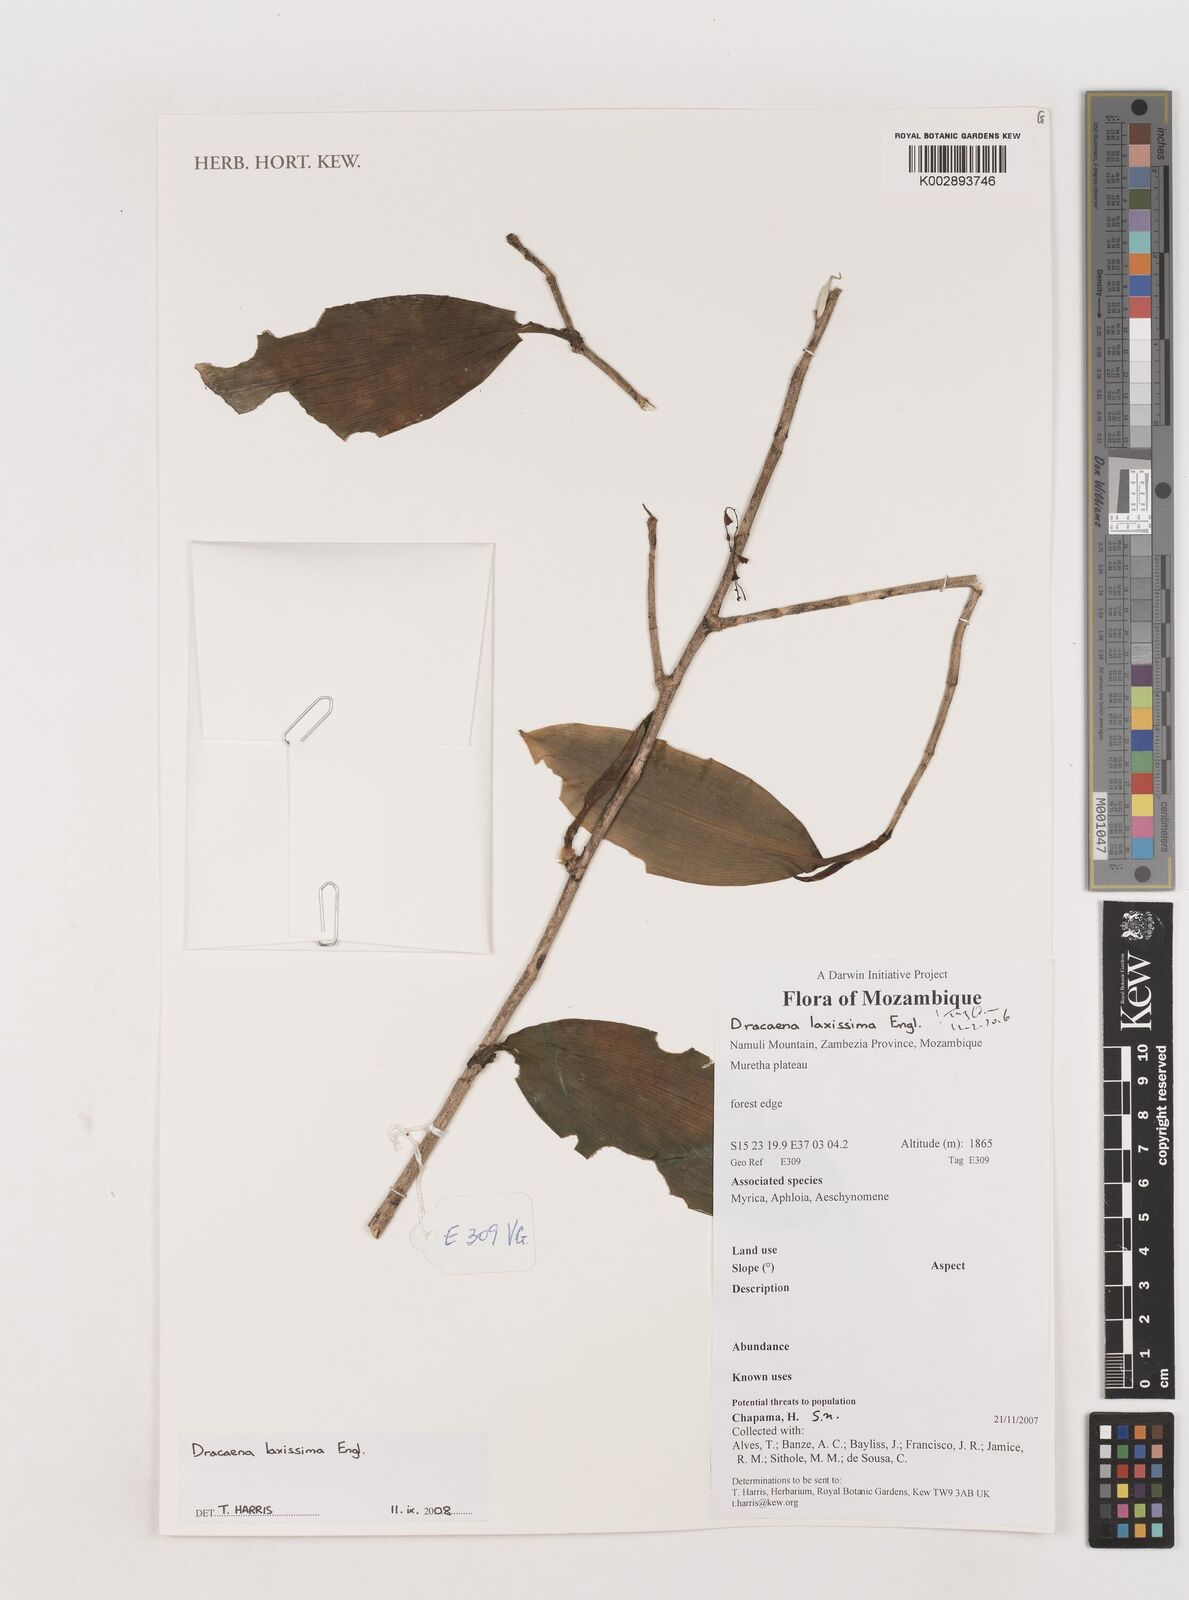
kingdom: Plantae
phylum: Tracheophyta
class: Liliopsida
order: Asparagales
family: Asparagaceae
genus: Dracaena
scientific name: Dracaena laxissima
